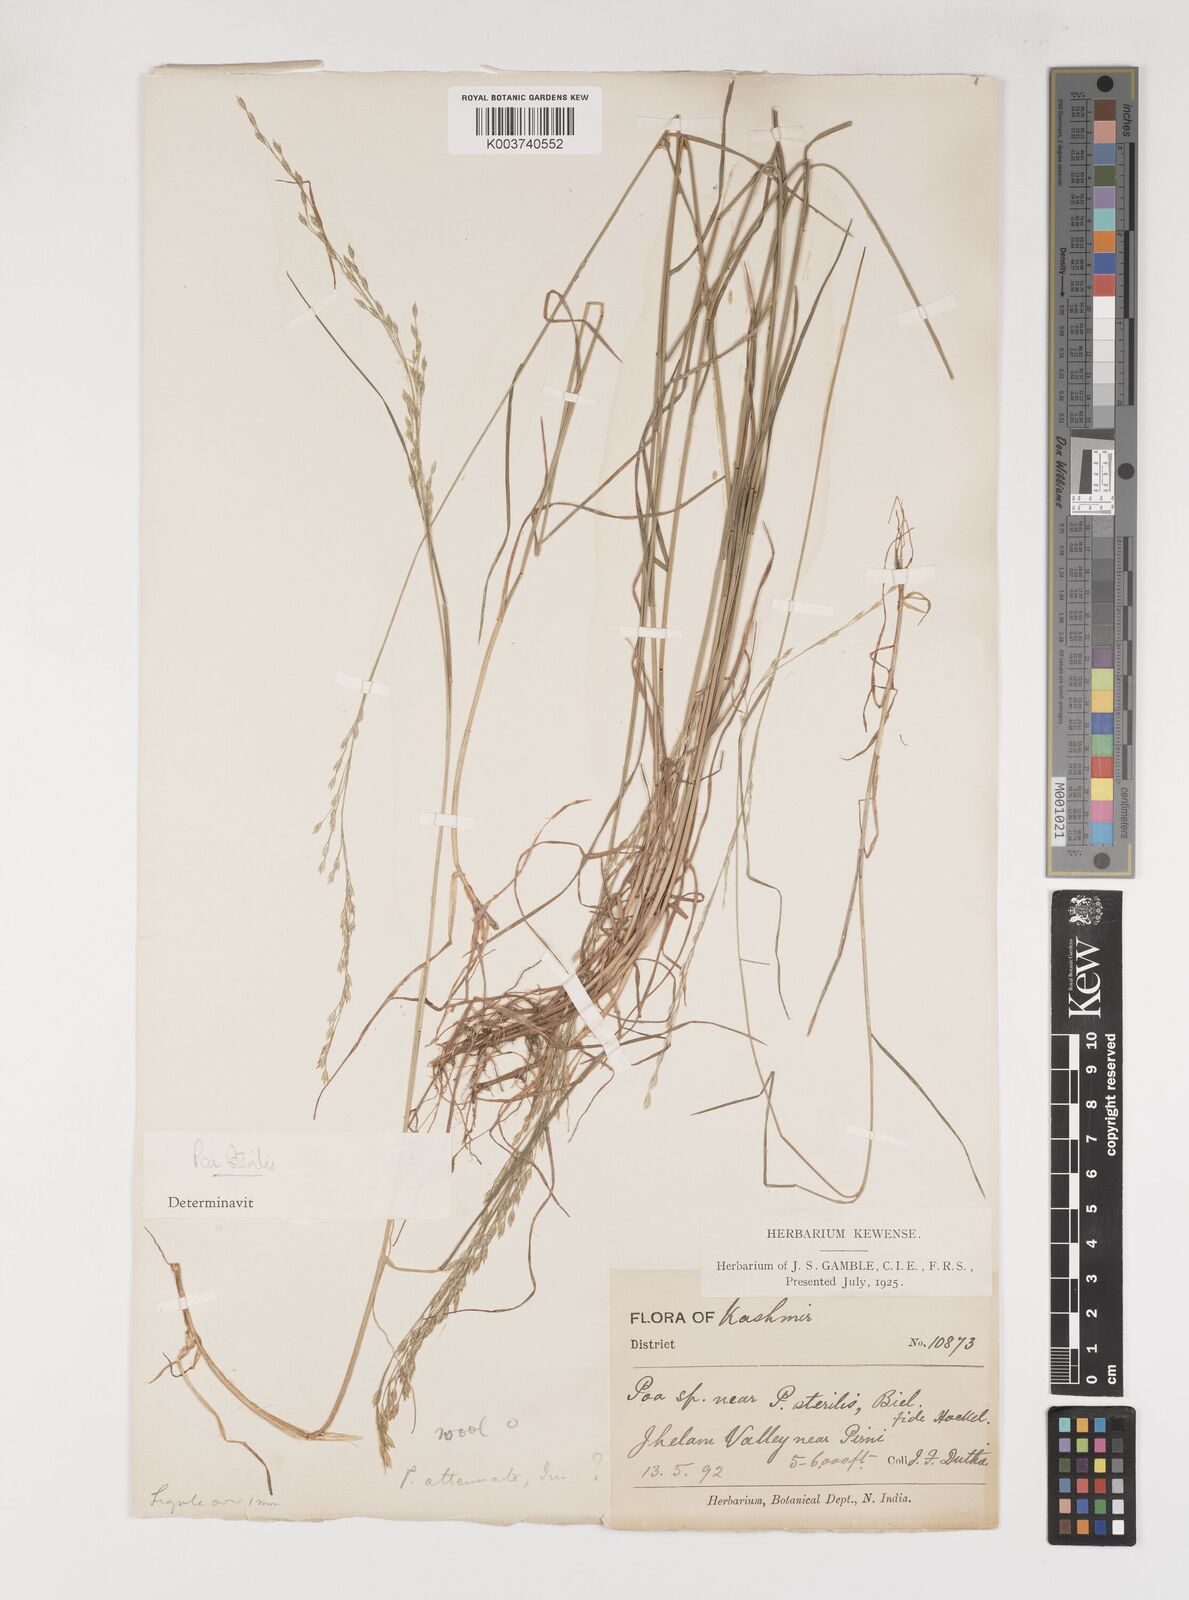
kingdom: Plantae
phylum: Tracheophyta
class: Liliopsida
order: Poales
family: Poaceae
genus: Poa
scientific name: Poa sterilis
